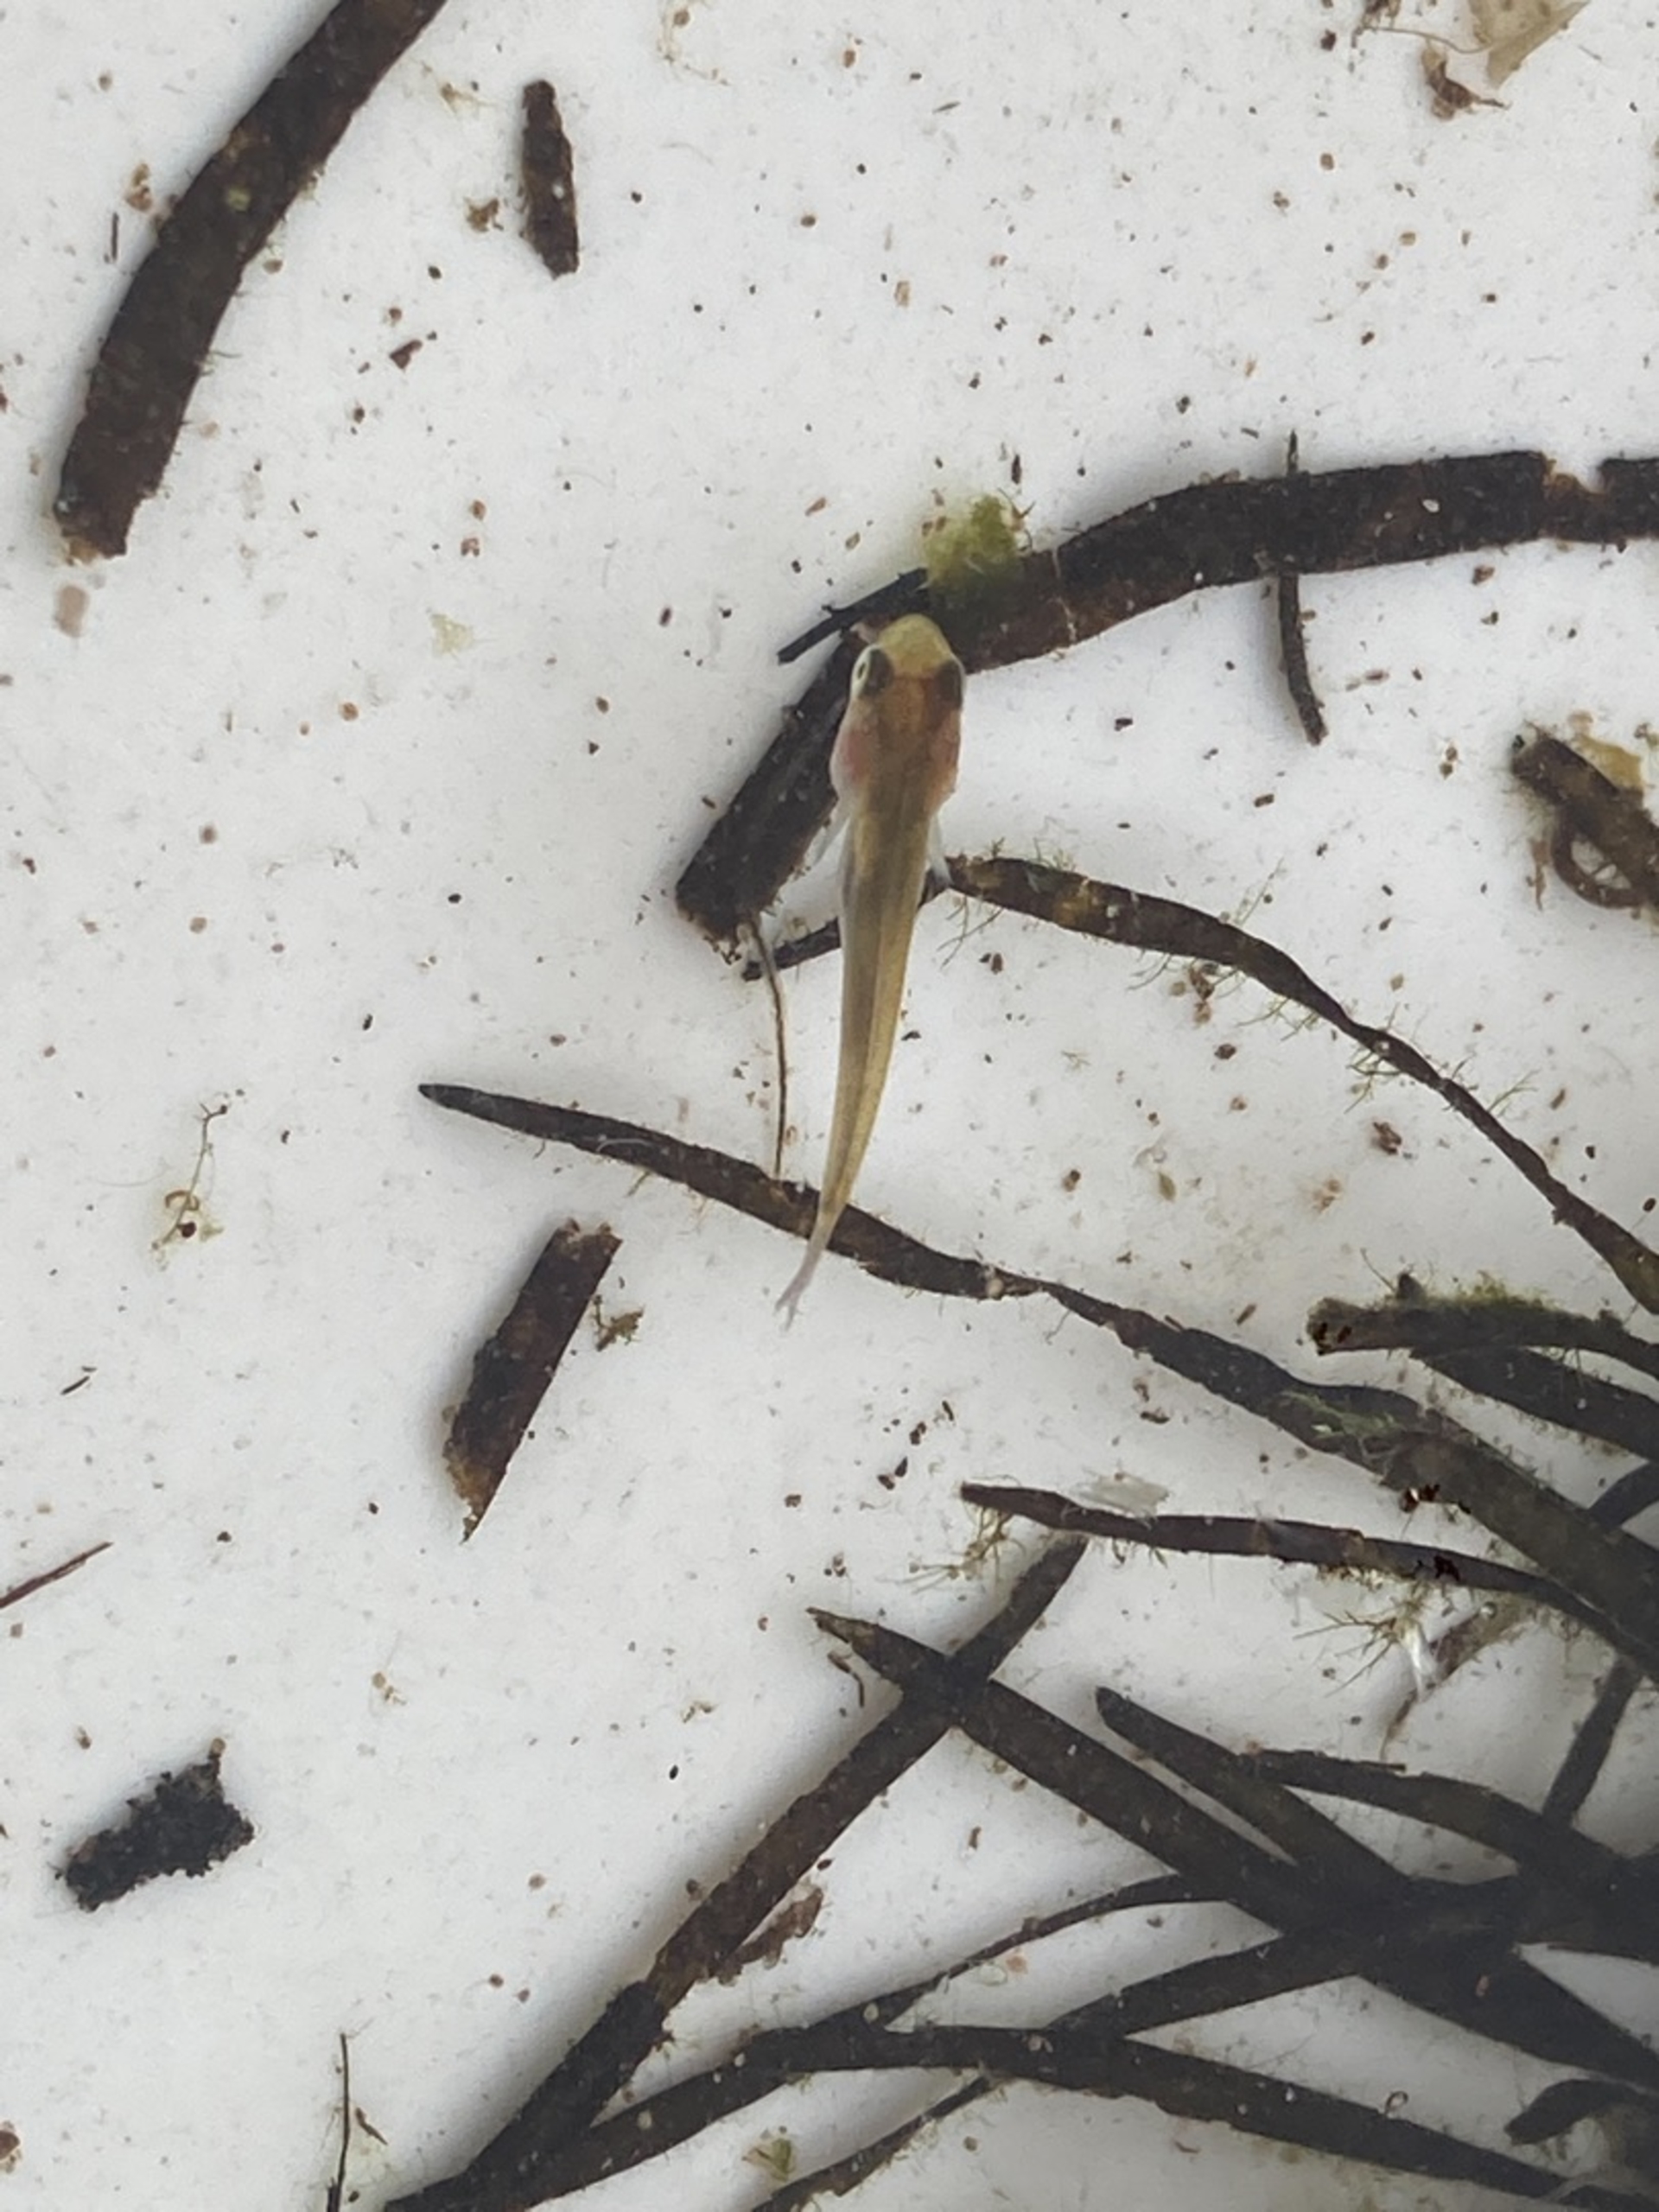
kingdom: Animalia
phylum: Chordata
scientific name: Chordata
